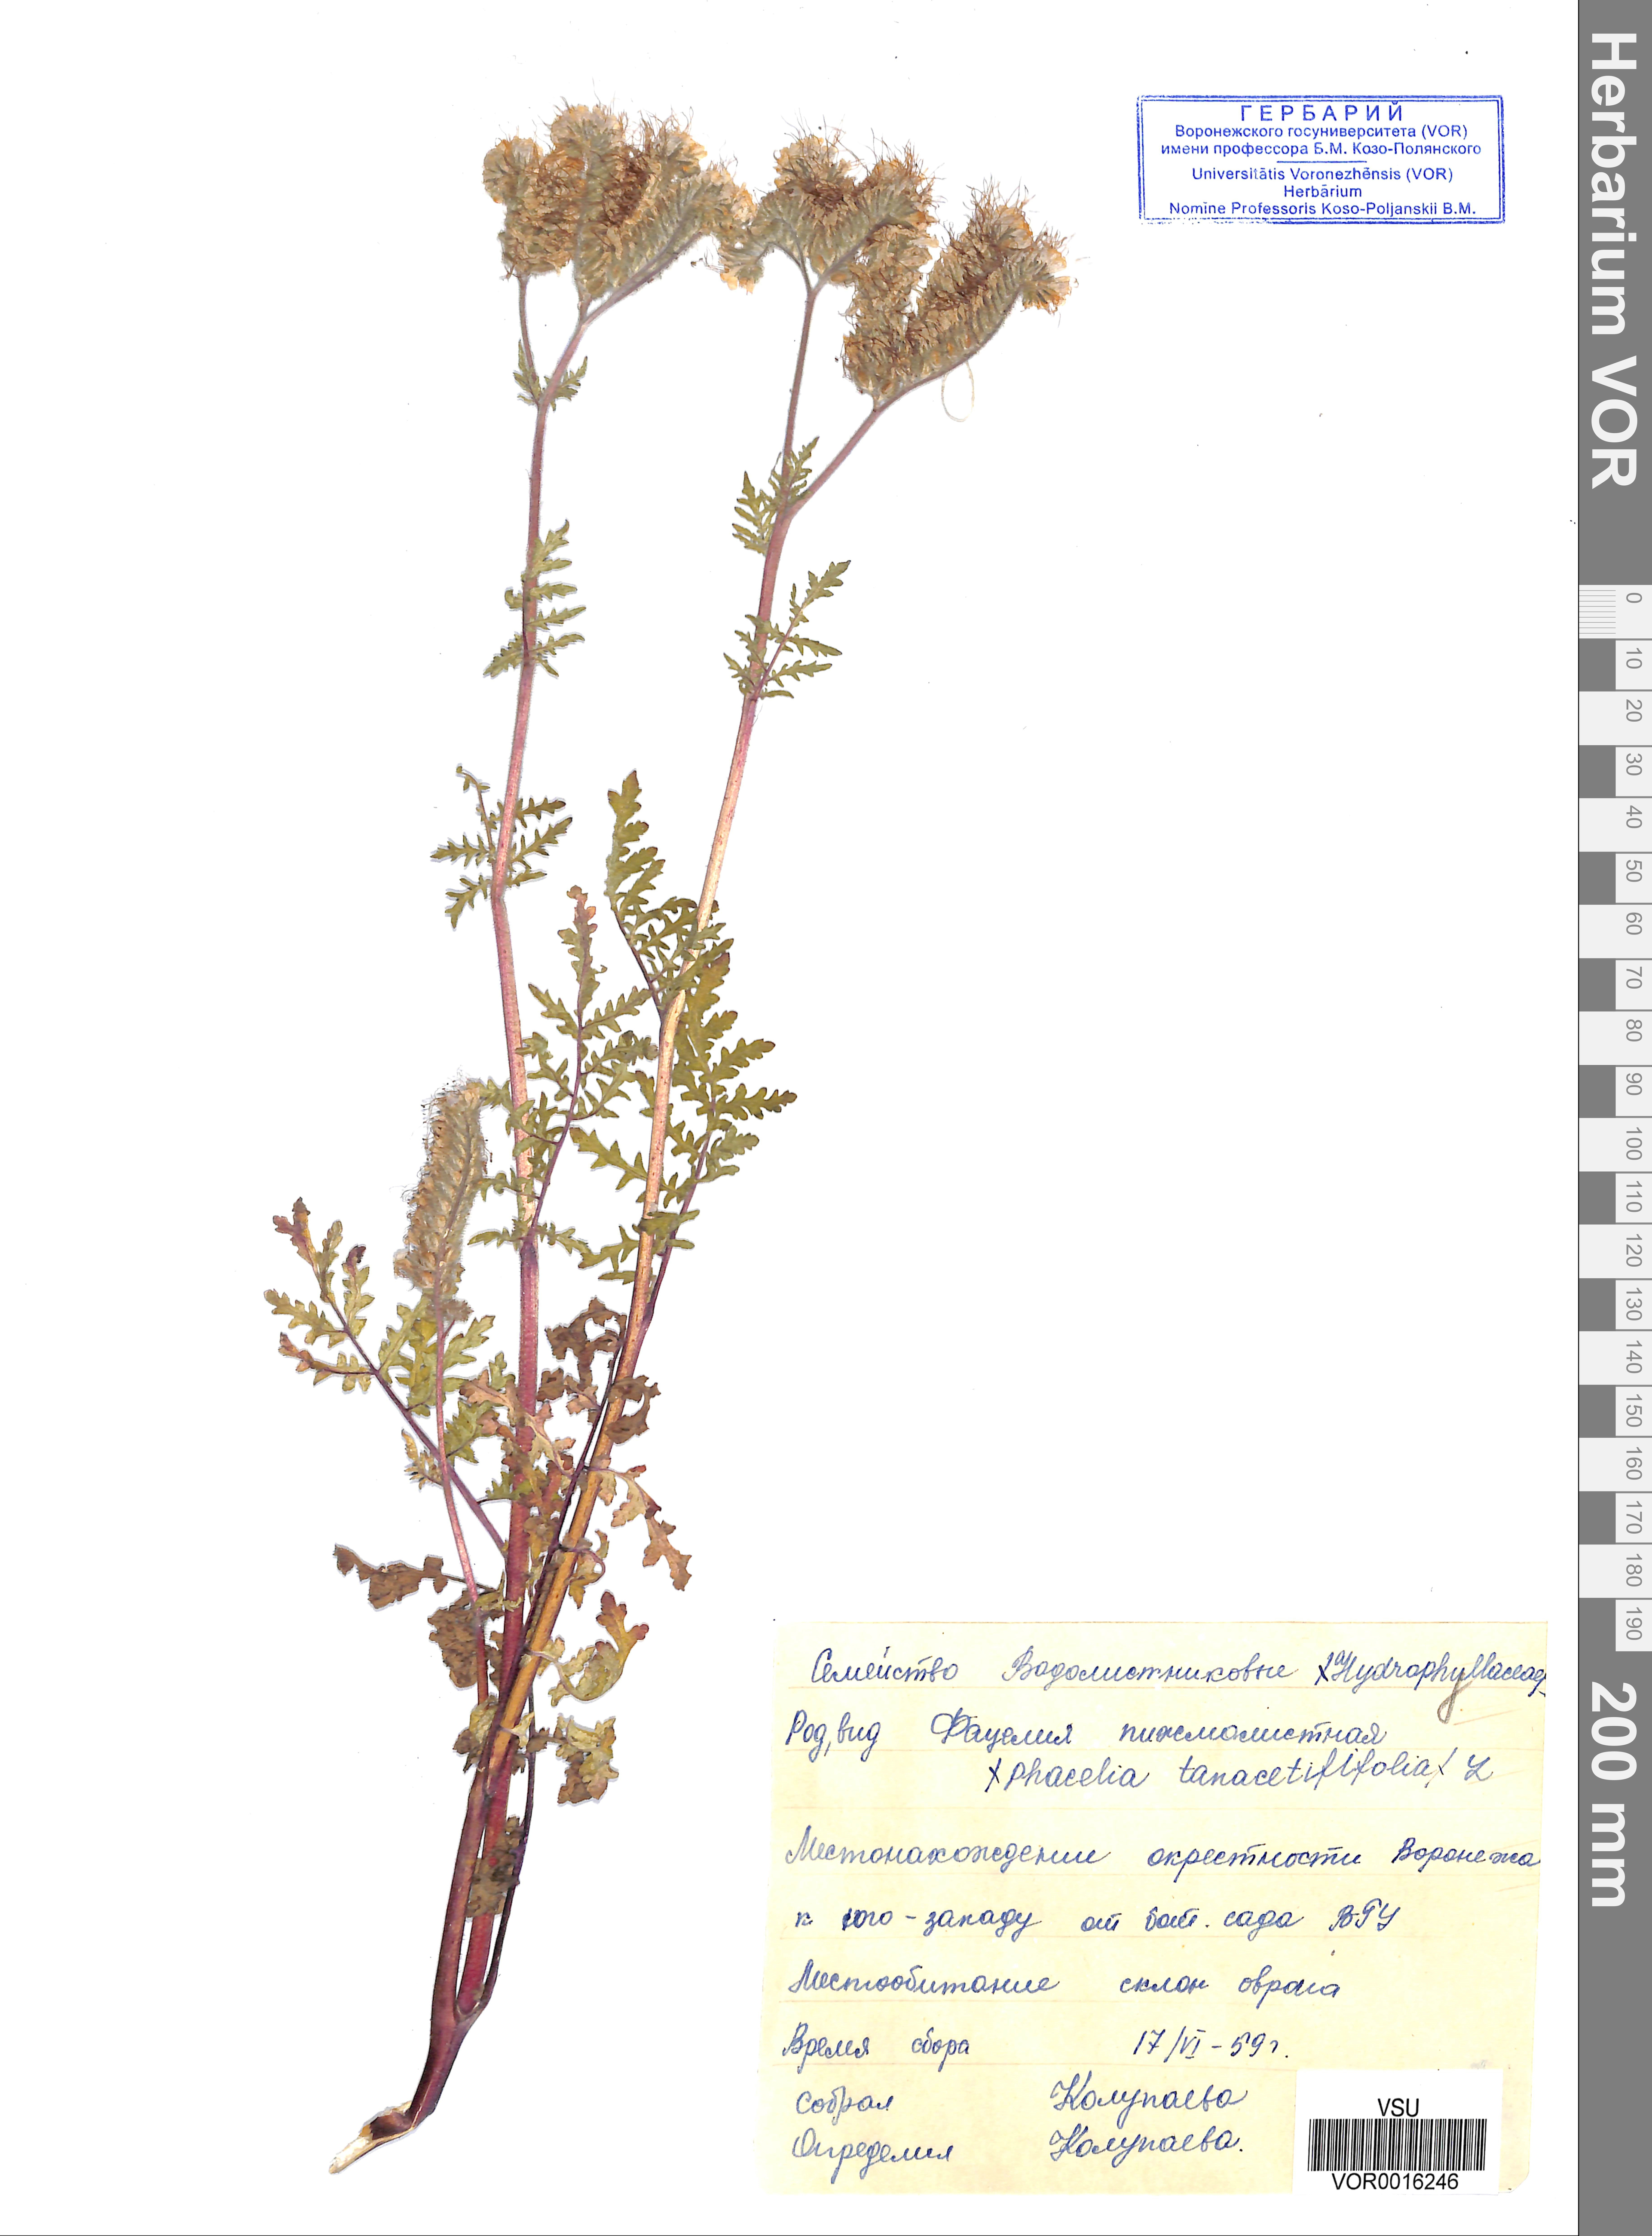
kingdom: Plantae
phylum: Tracheophyta
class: Magnoliopsida
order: Boraginales
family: Hydrophyllaceae
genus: Phacelia
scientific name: Phacelia tanacetifolia
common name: Phacelia
